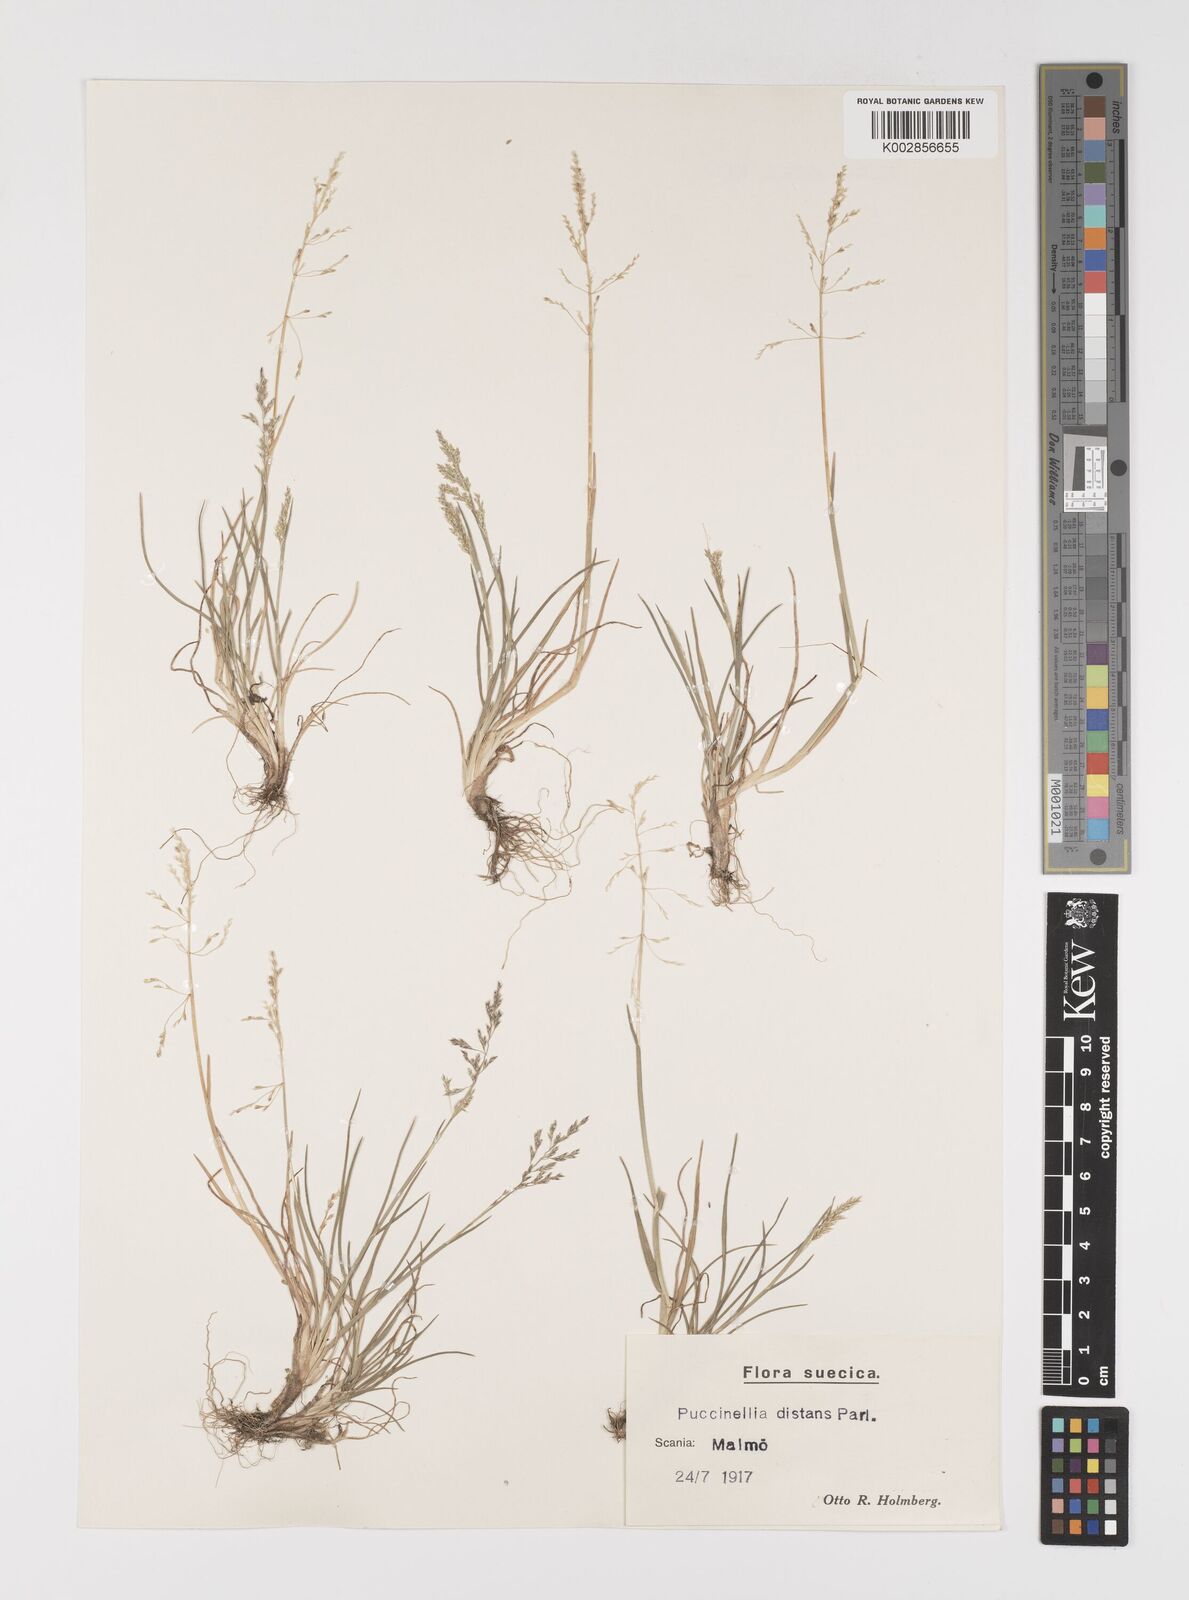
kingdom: Plantae
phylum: Tracheophyta
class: Liliopsida
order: Poales
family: Poaceae
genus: Puccinellia
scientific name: Puccinellia
